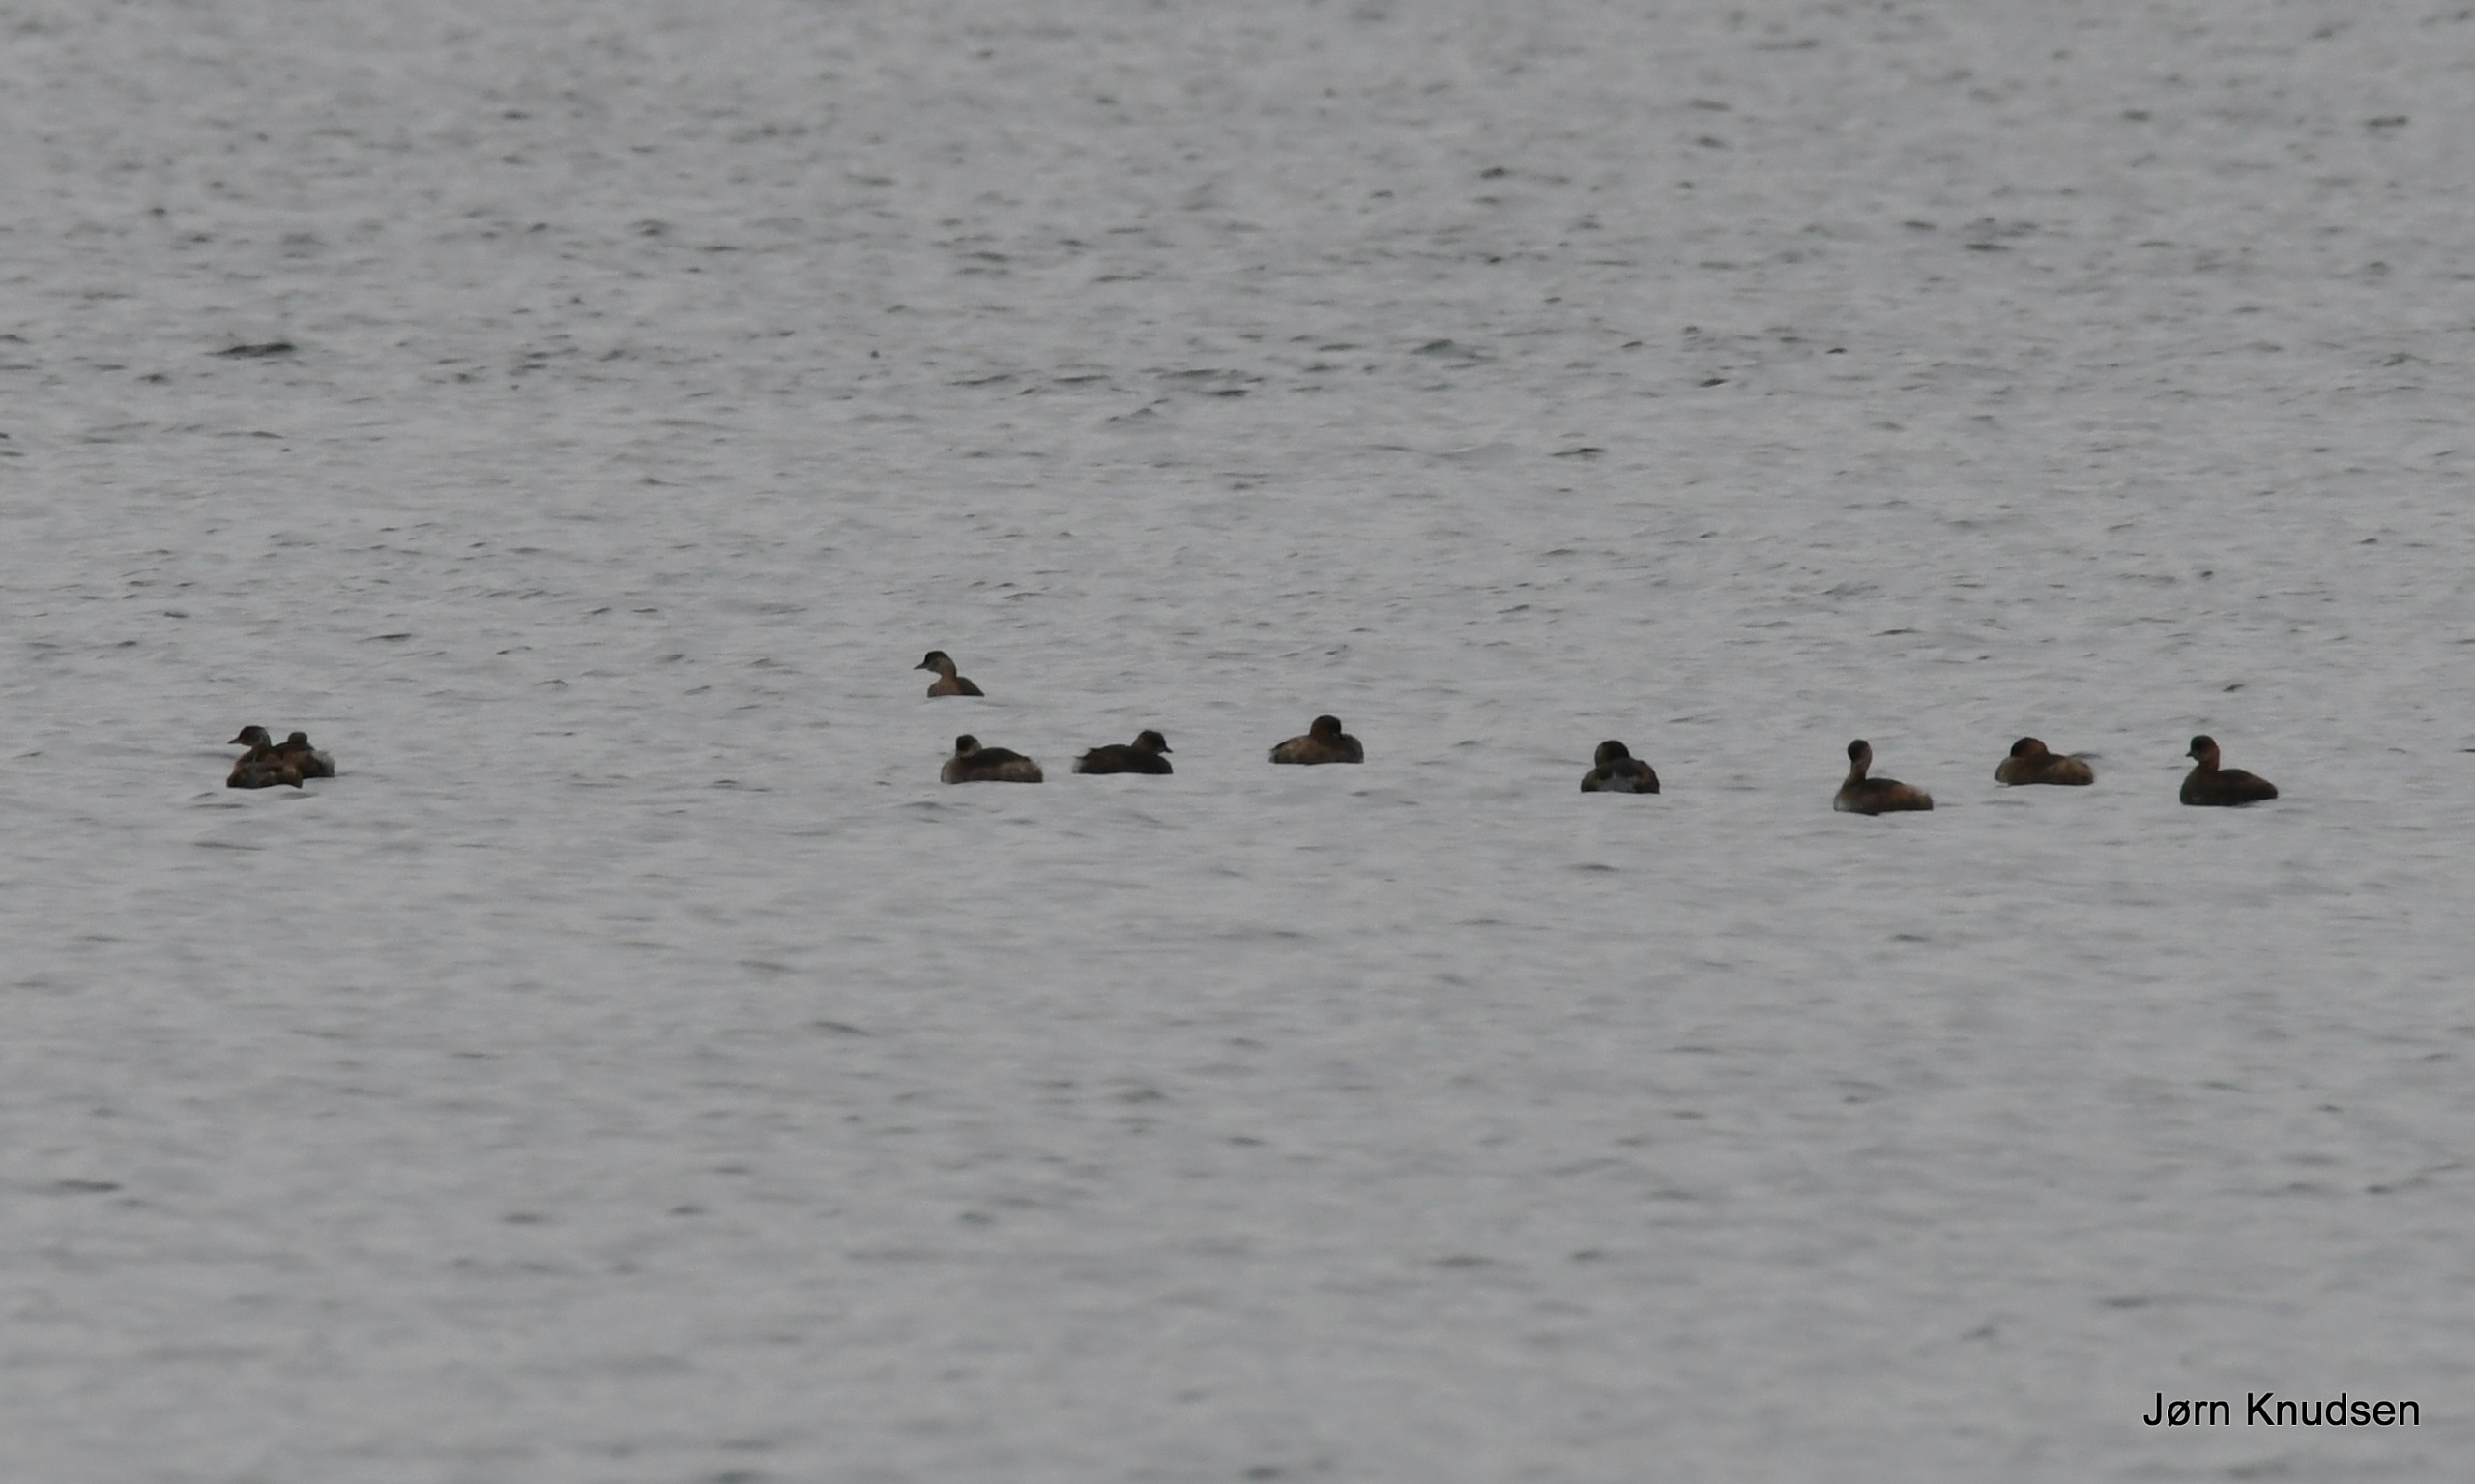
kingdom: Animalia
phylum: Chordata
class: Aves
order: Podicipediformes
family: Podicipedidae
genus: Tachybaptus
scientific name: Tachybaptus ruficollis
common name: Lille lappedykker
